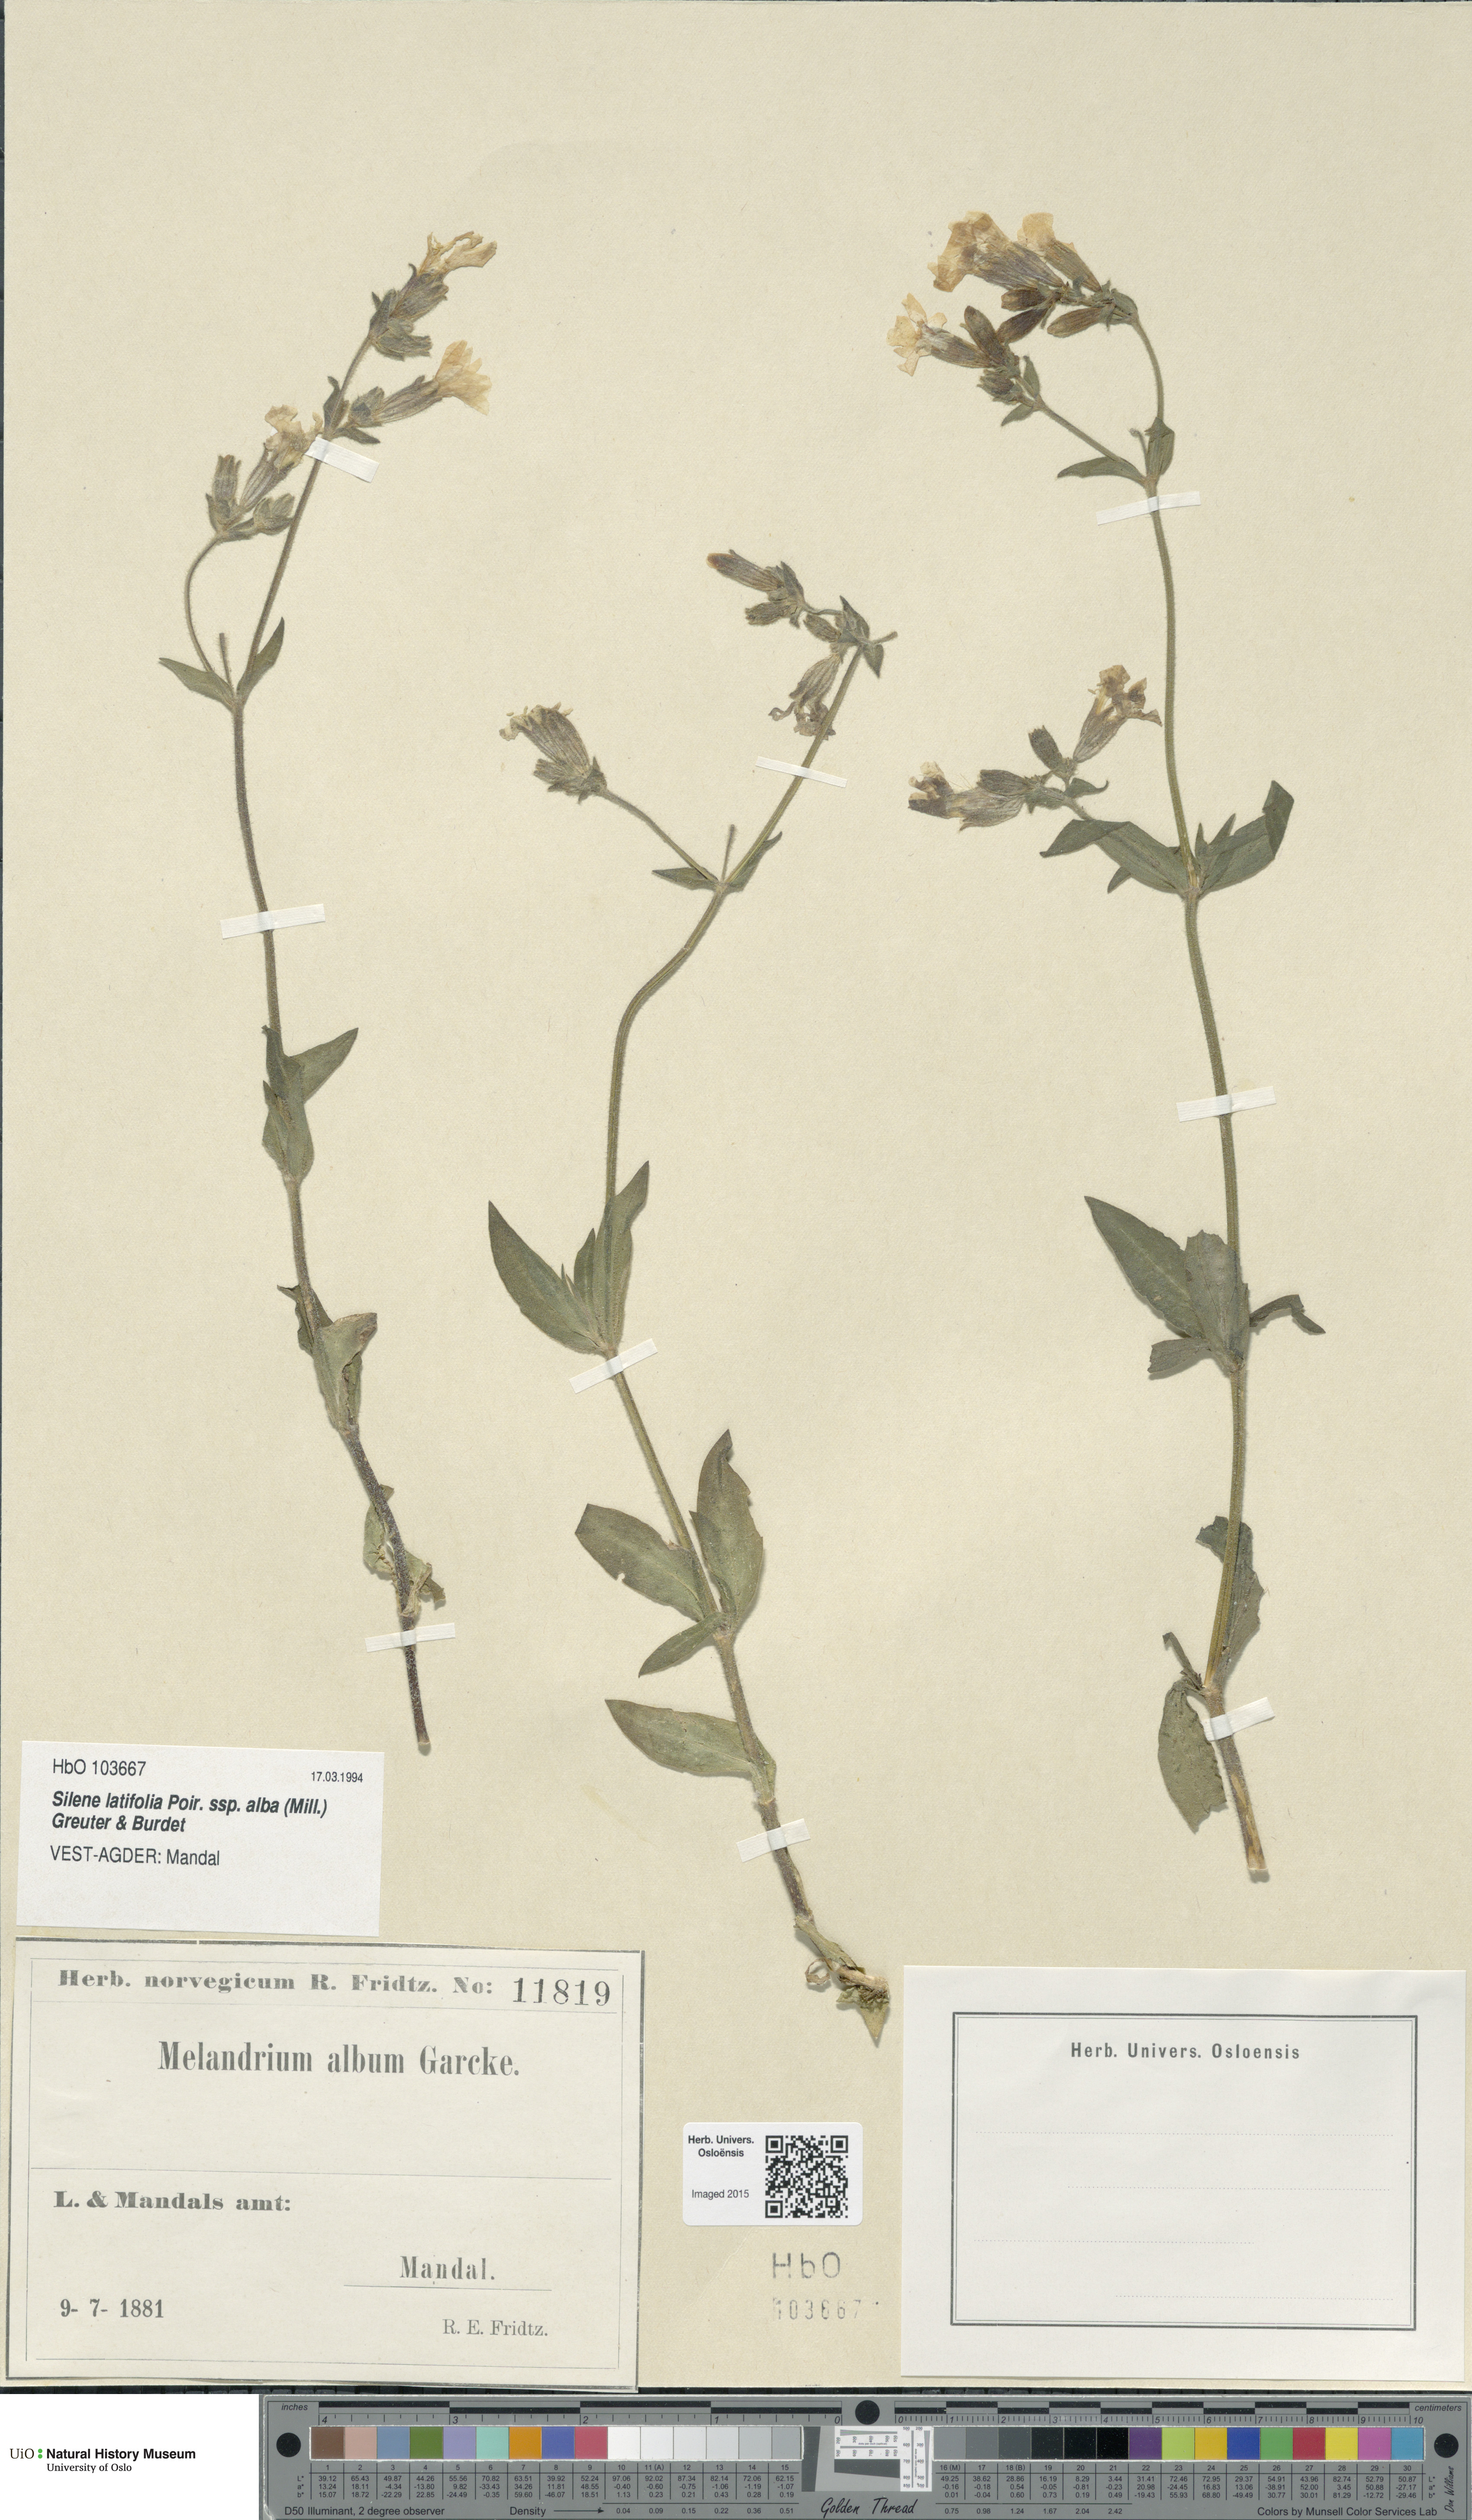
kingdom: Plantae
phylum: Tracheophyta
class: Magnoliopsida
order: Caryophyllales
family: Caryophyllaceae
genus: Silene
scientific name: Silene latifolia
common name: White campion
